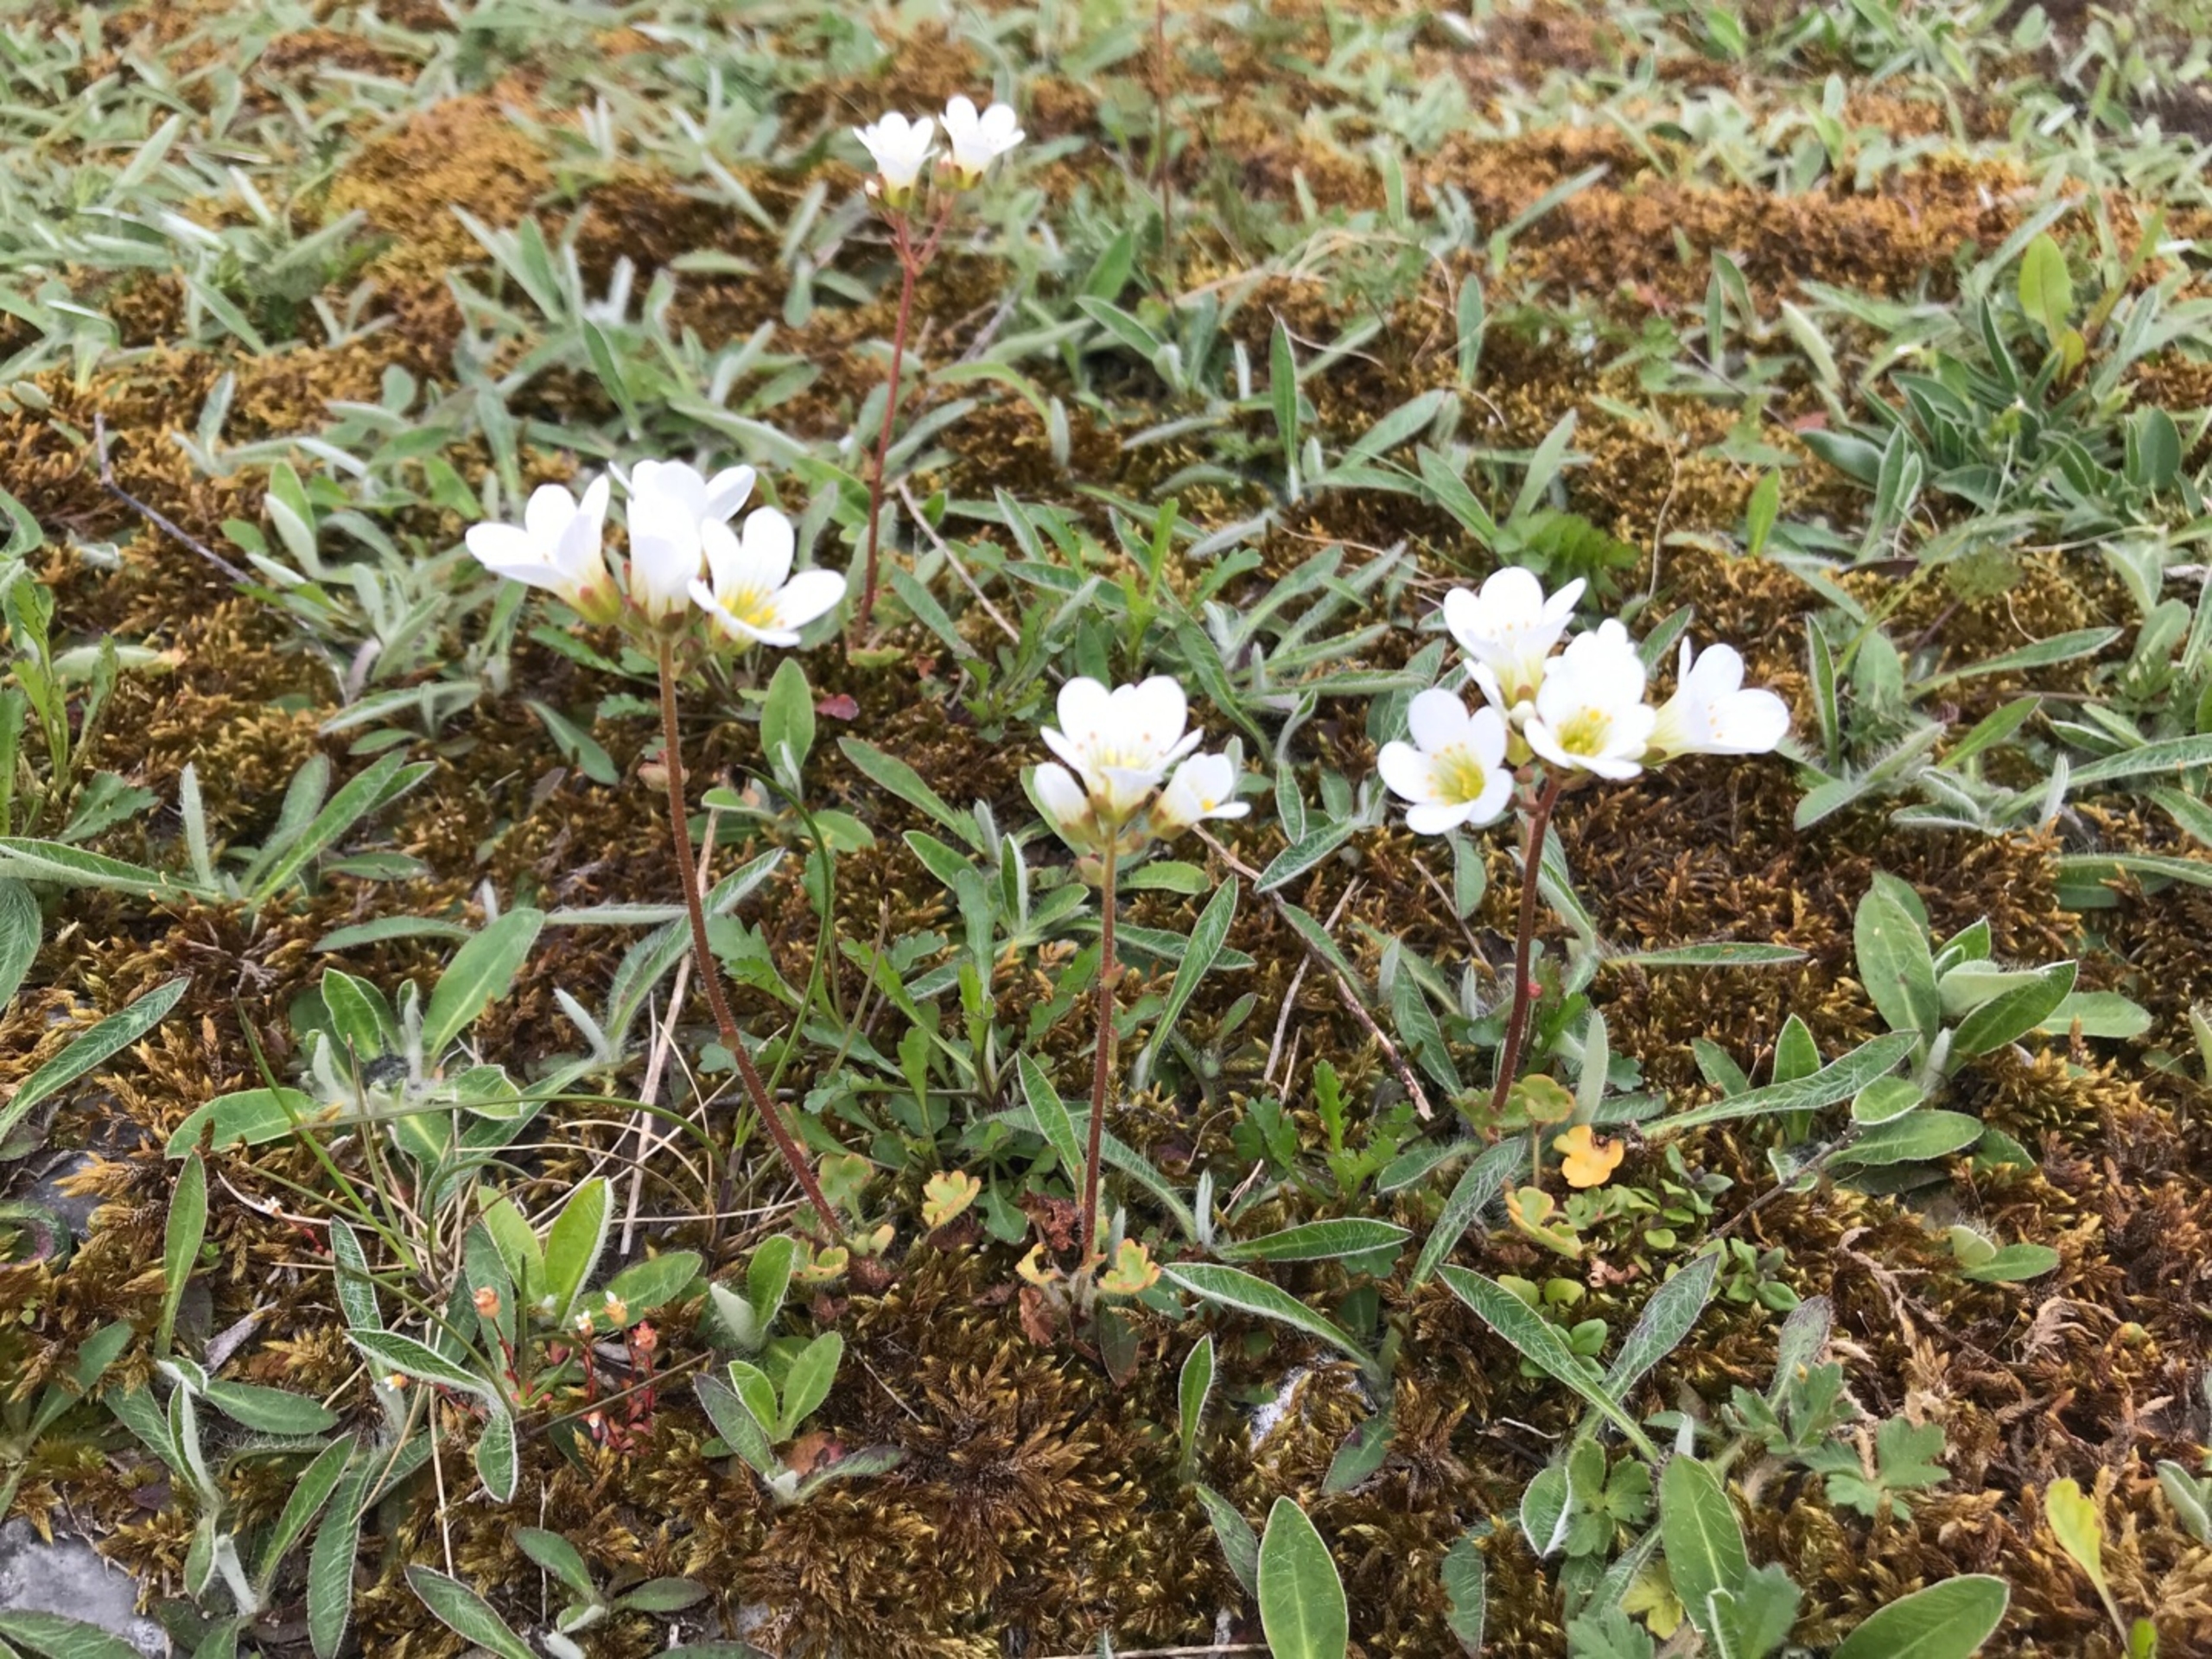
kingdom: Plantae
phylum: Tracheophyta
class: Magnoliopsida
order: Saxifragales
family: Saxifragaceae
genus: Saxifraga
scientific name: Saxifraga granulata
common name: Kornet stenbræk
